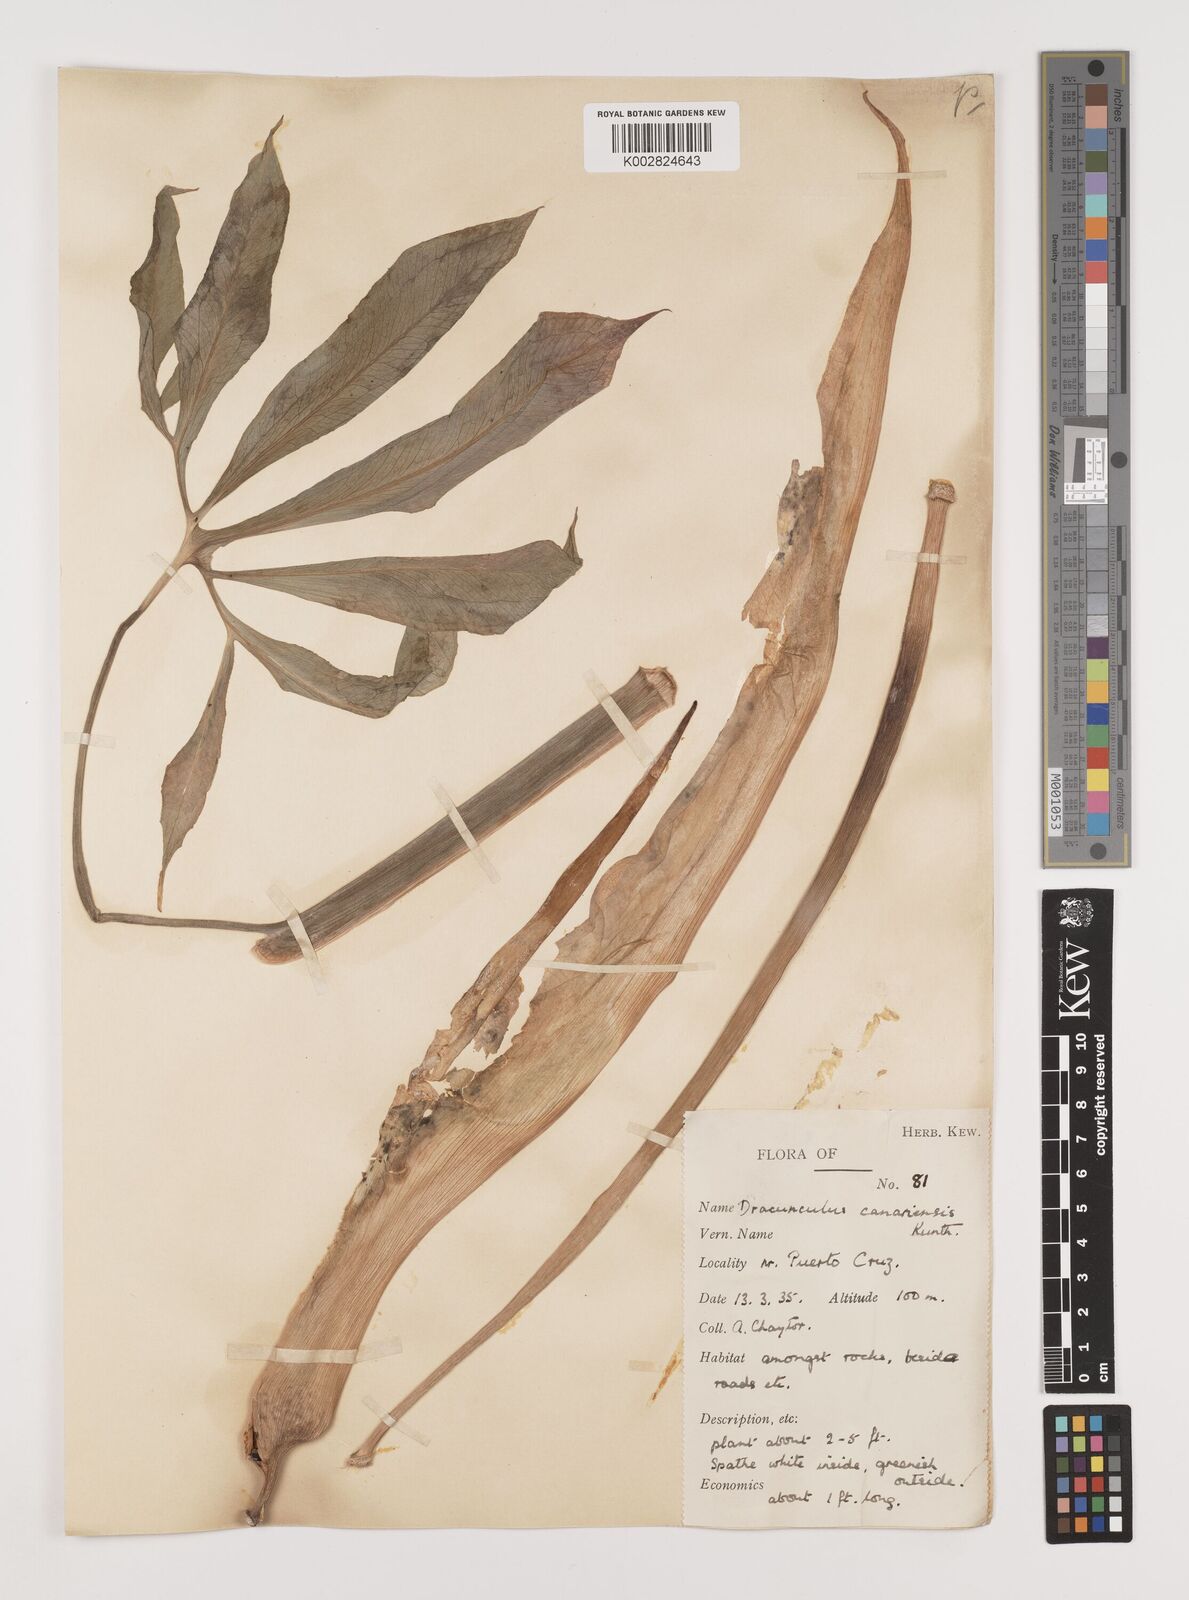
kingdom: Plantae
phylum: Tracheophyta
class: Liliopsida
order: Alismatales
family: Araceae
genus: Dracunculus
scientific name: Dracunculus canariensis
